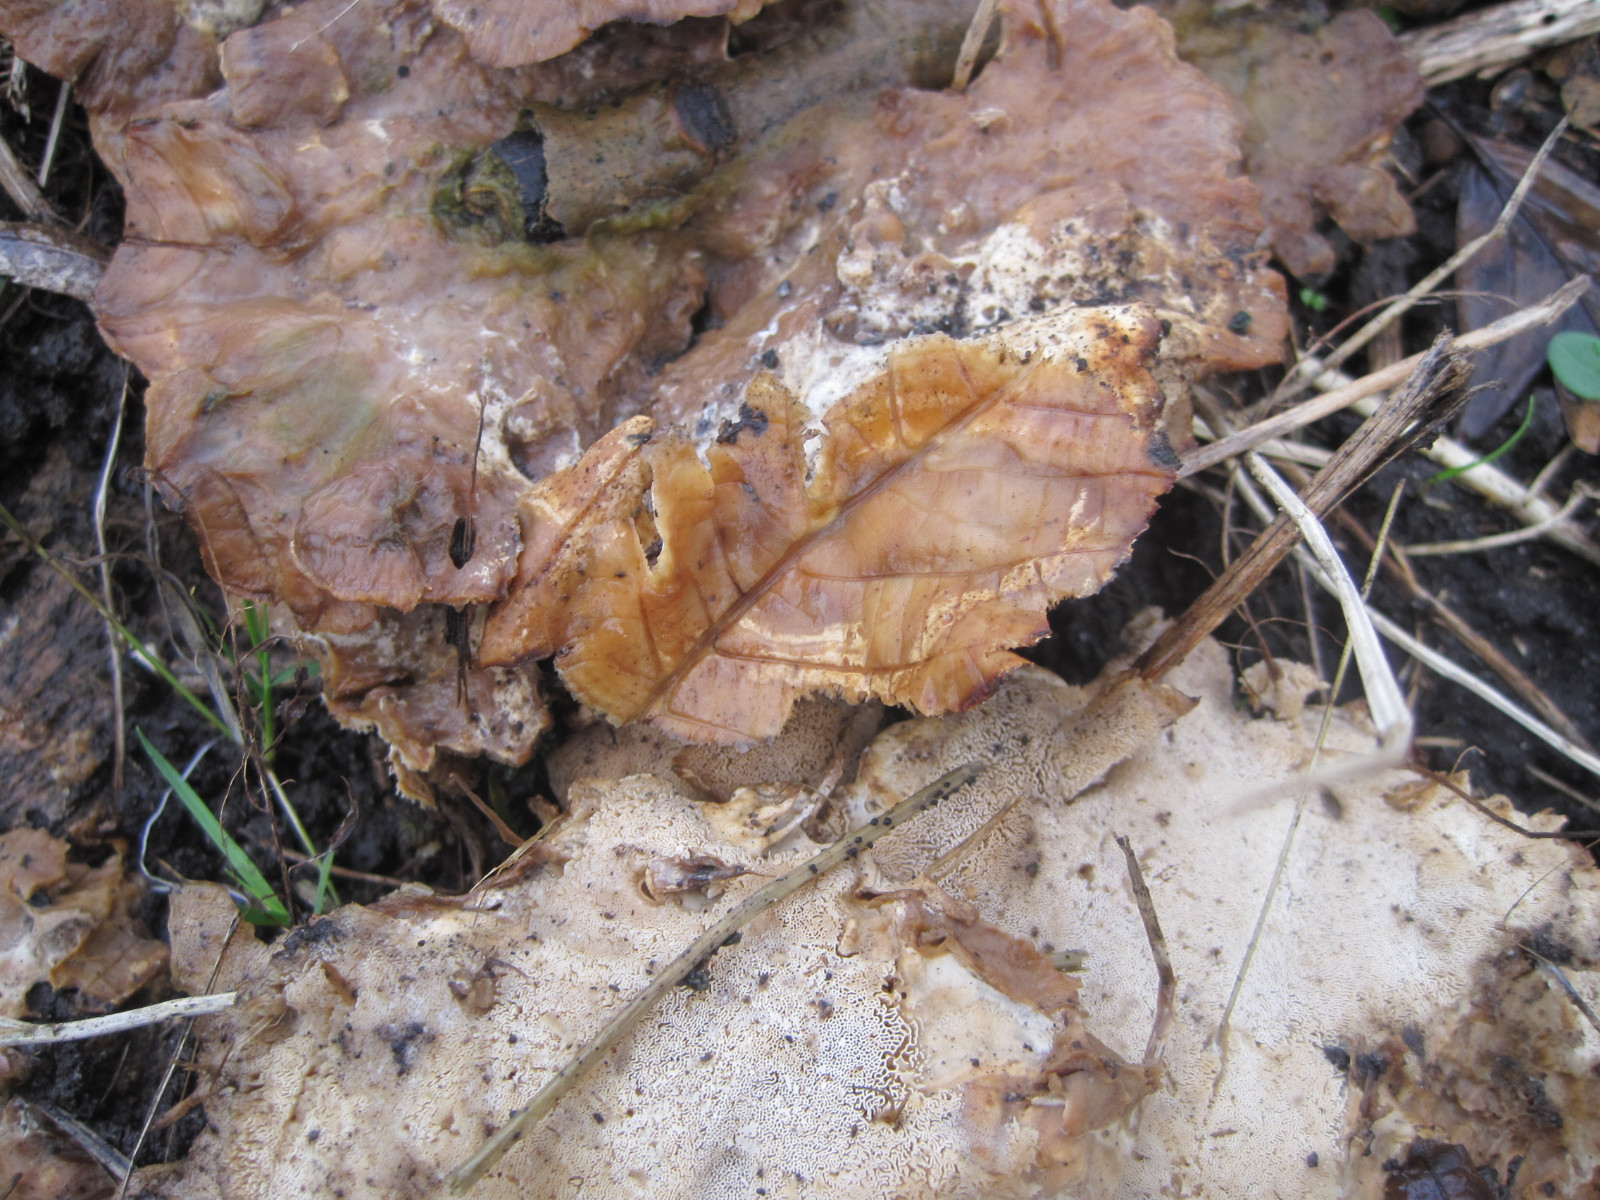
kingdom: Fungi
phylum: Basidiomycota
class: Agaricomycetes
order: Polyporales
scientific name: Polyporales
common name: poresvampordenen
